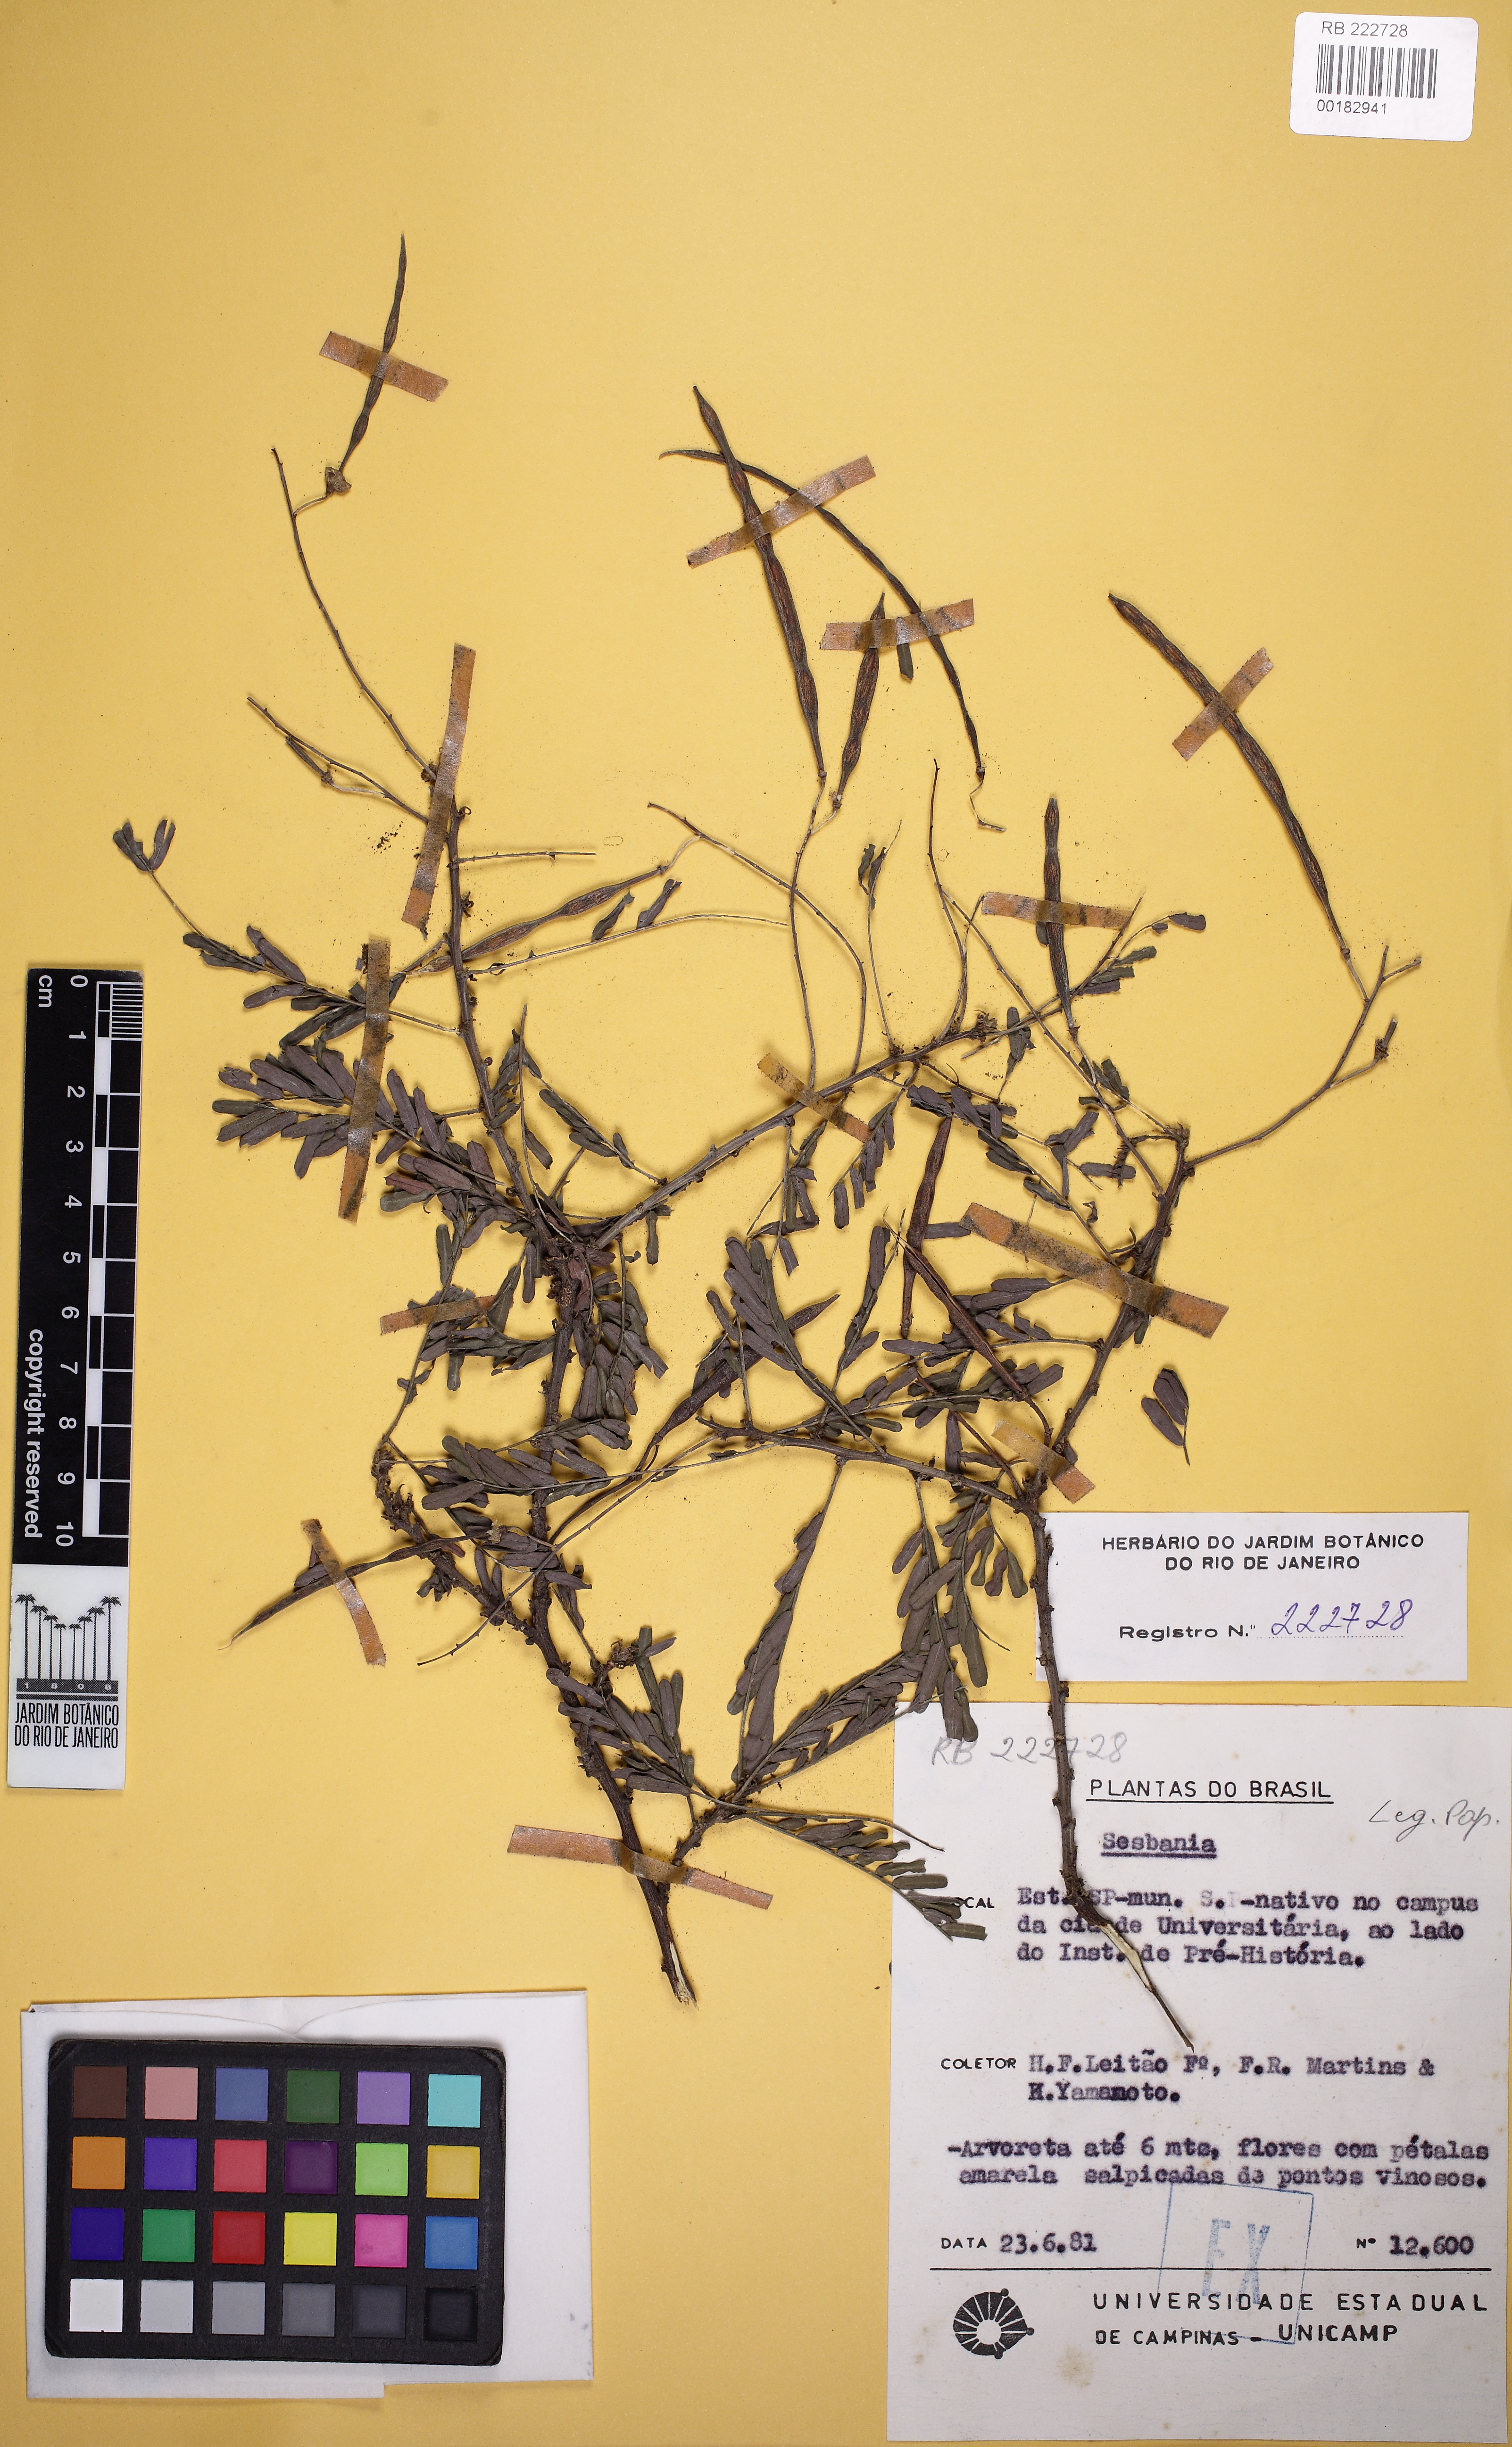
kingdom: Plantae
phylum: Tracheophyta
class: Magnoliopsida
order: Fabales
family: Fabaceae
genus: Sesbania
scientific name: Sesbania
